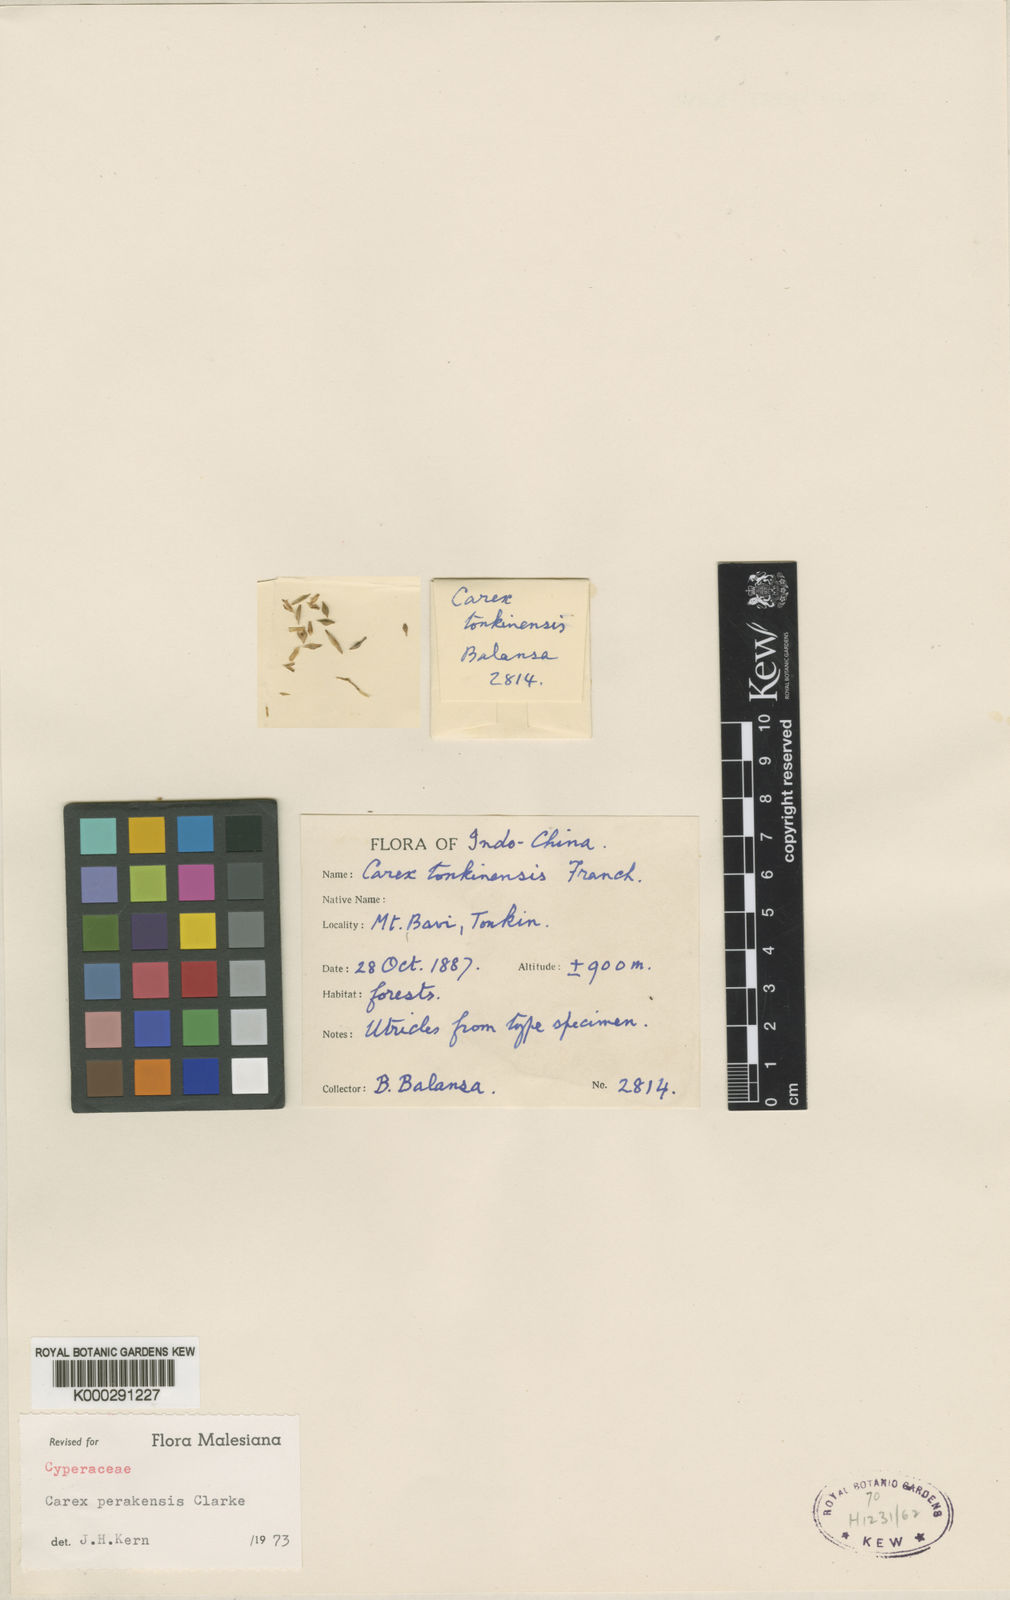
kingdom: Plantae
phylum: Tracheophyta
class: Liliopsida
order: Poales
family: Cyperaceae
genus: Carex
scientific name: Carex perakensis
